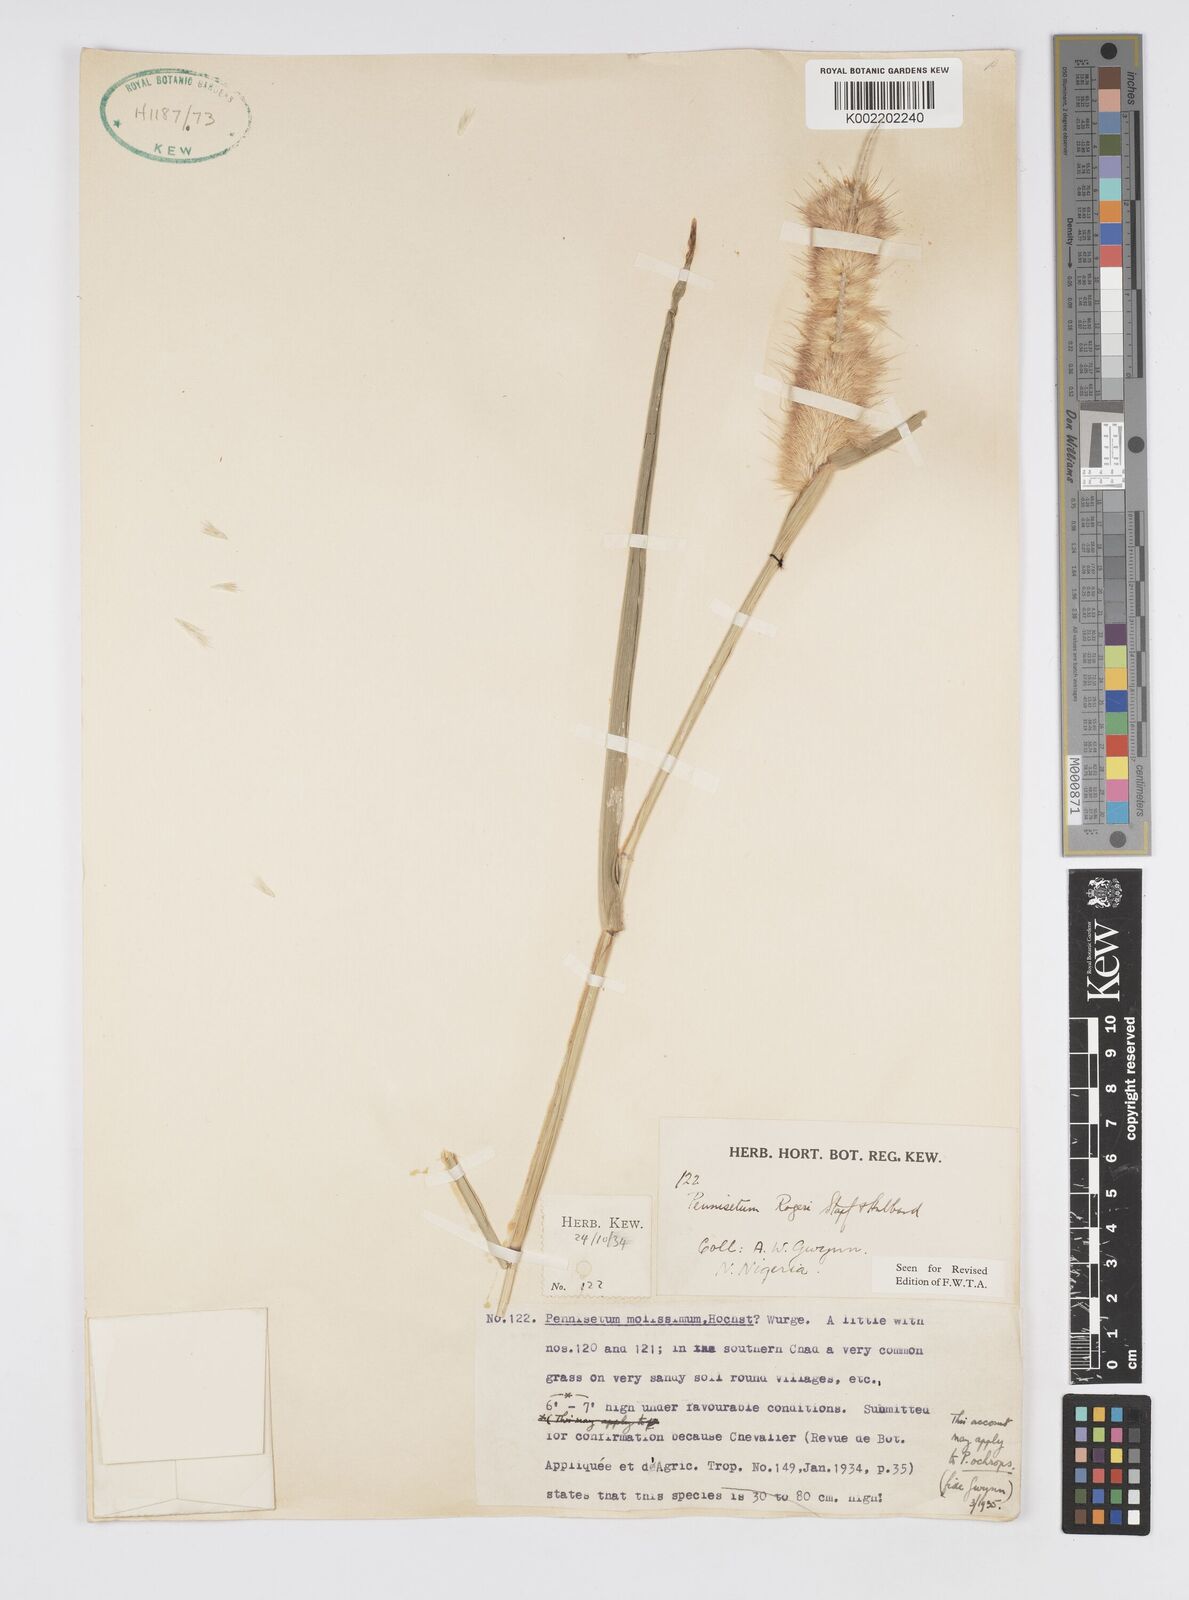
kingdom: Plantae
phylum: Tracheophyta
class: Liliopsida
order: Poales
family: Poaceae
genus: Cenchrus
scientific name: Cenchrus violaceus
